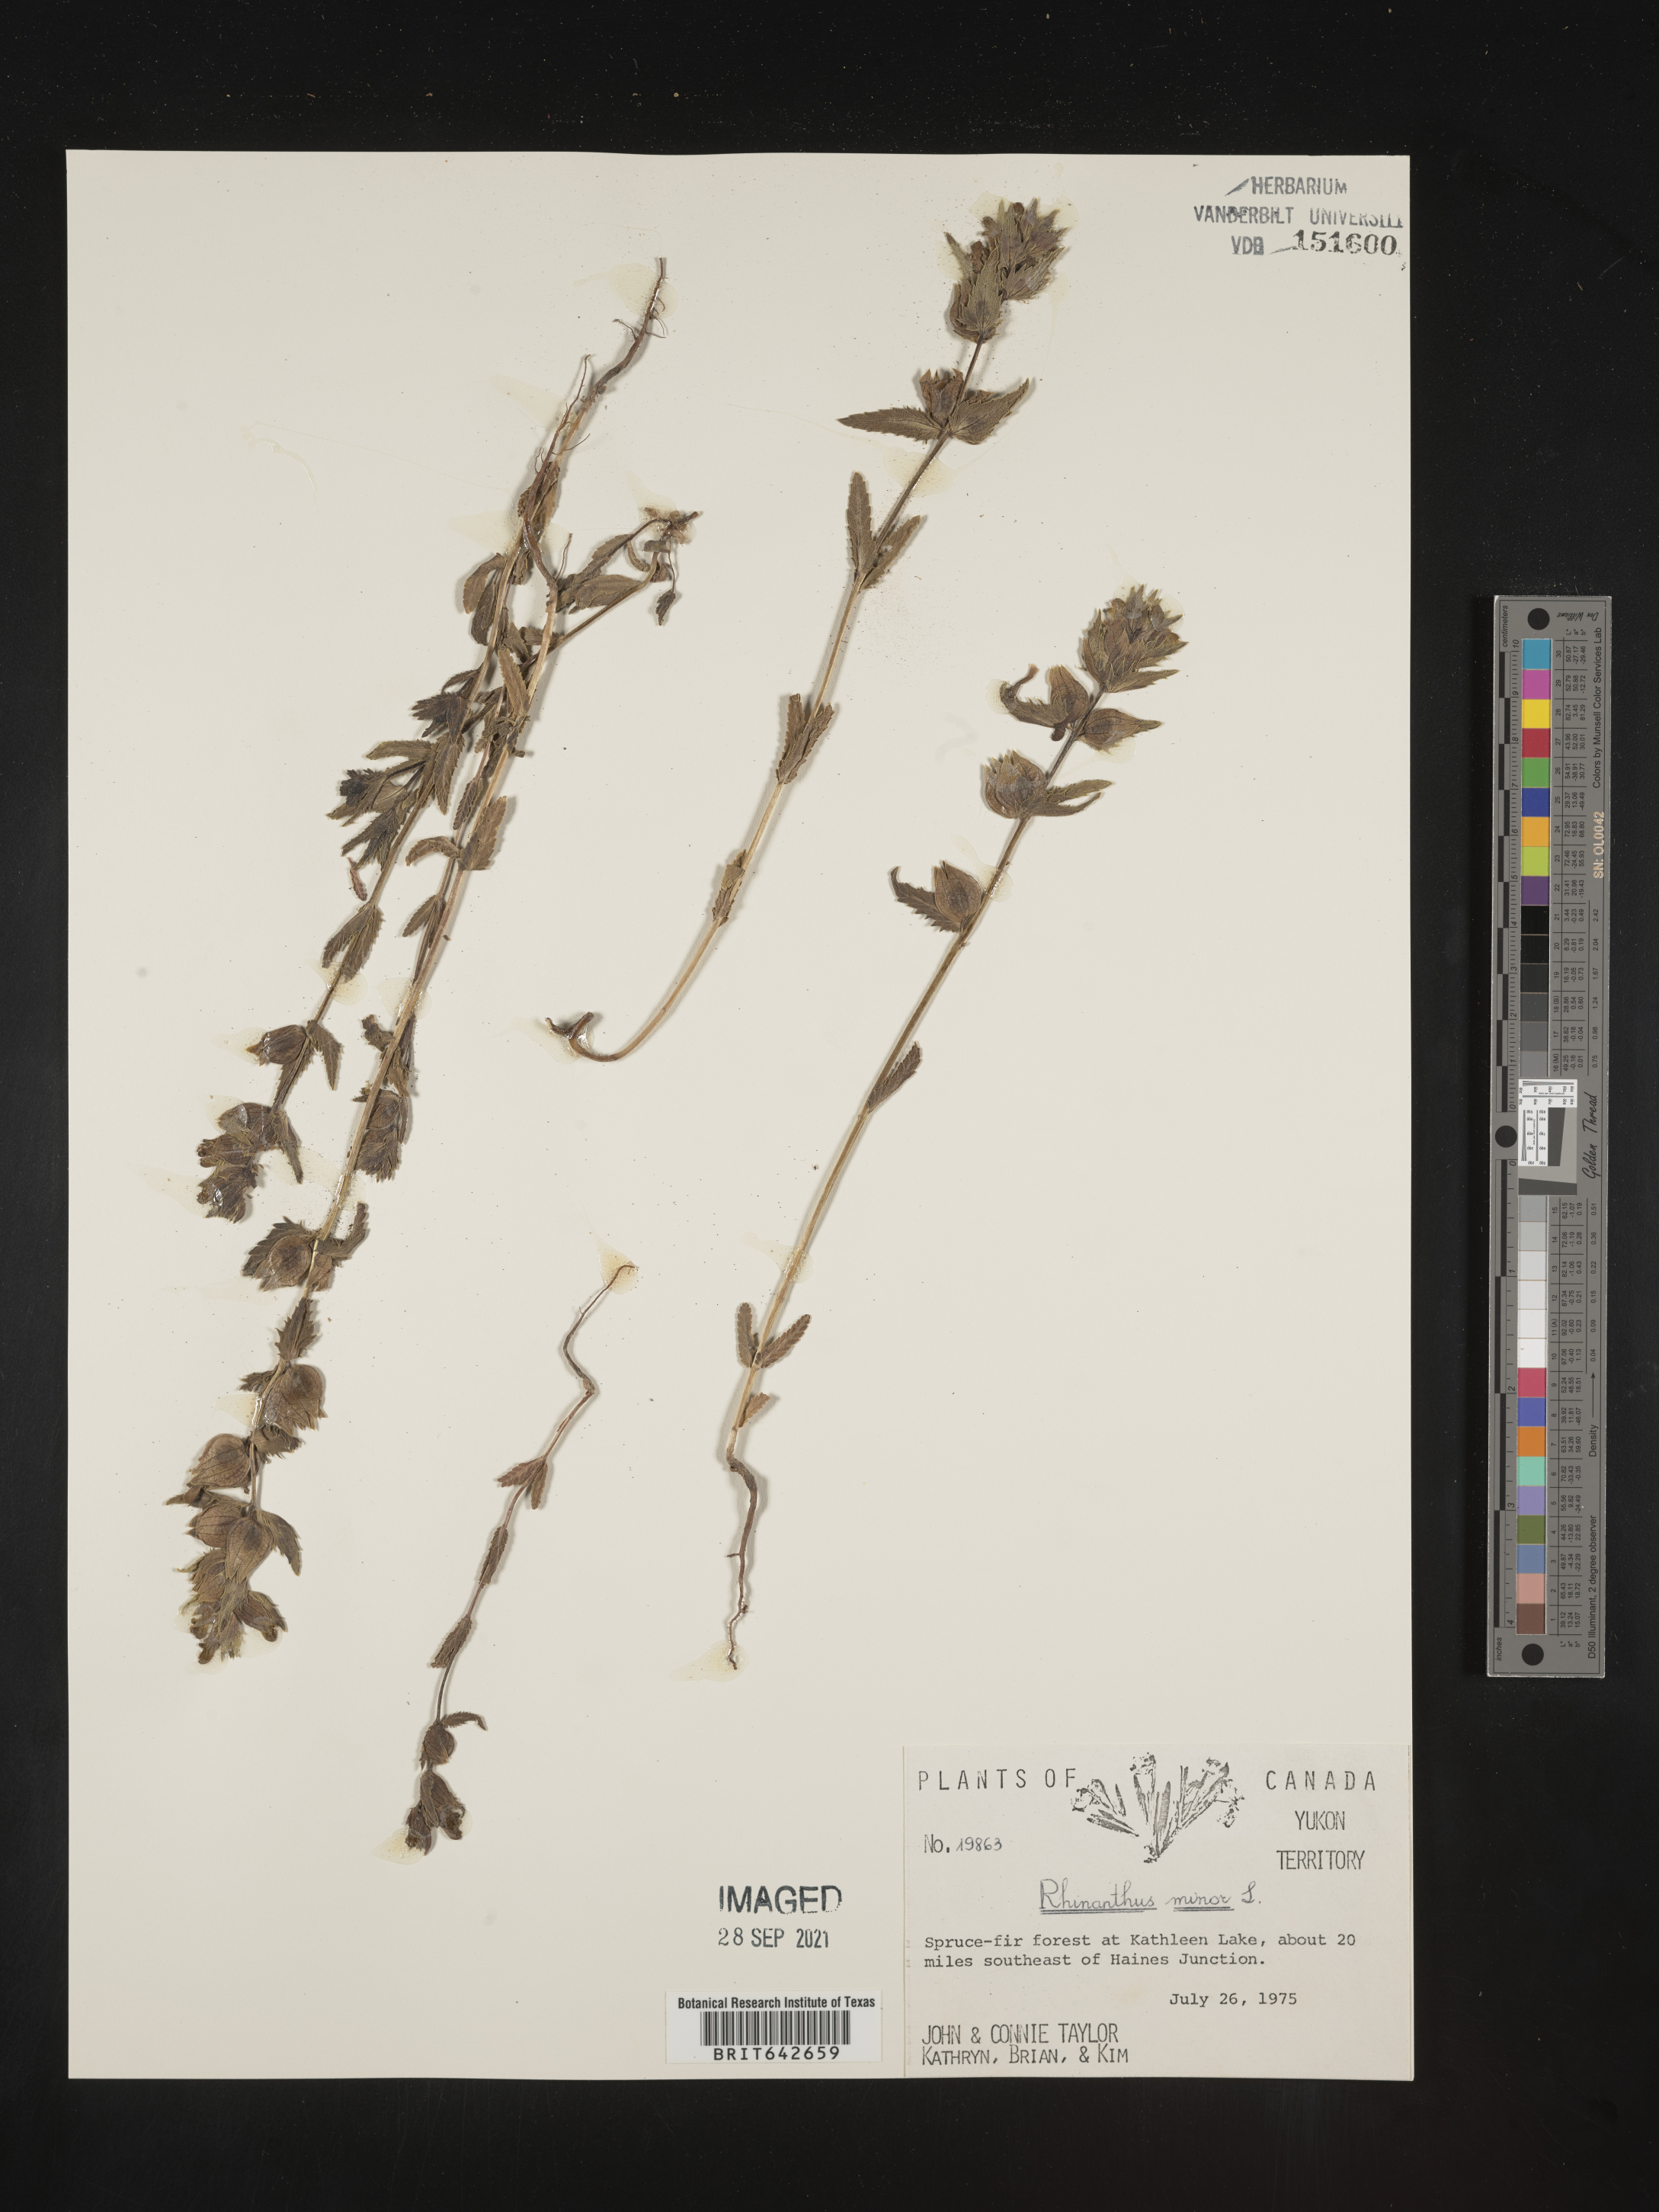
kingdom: Plantae
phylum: Tracheophyta
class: Magnoliopsida
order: Lamiales
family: Orobanchaceae
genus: Rhinanthus
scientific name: Rhinanthus
